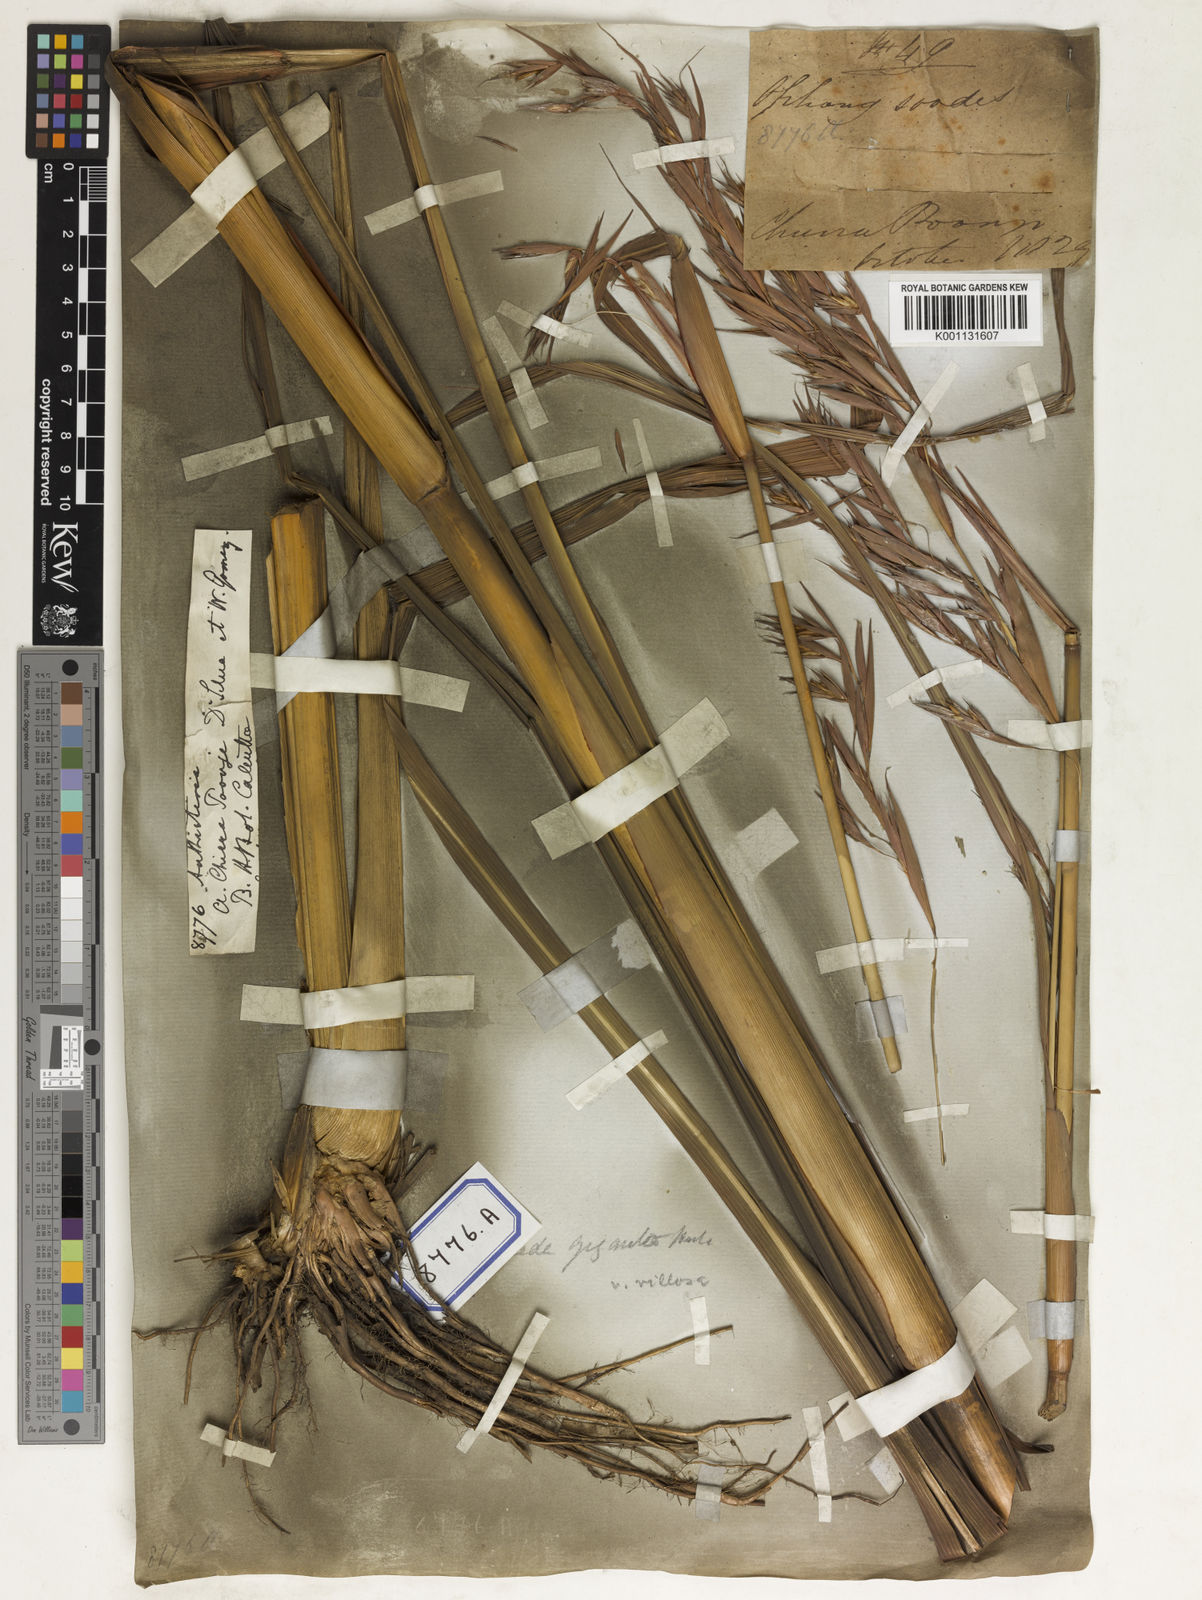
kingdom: Plantae
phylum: Tracheophyta
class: Liliopsida
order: Poales
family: Poaceae
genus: Themeda
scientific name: Themeda
